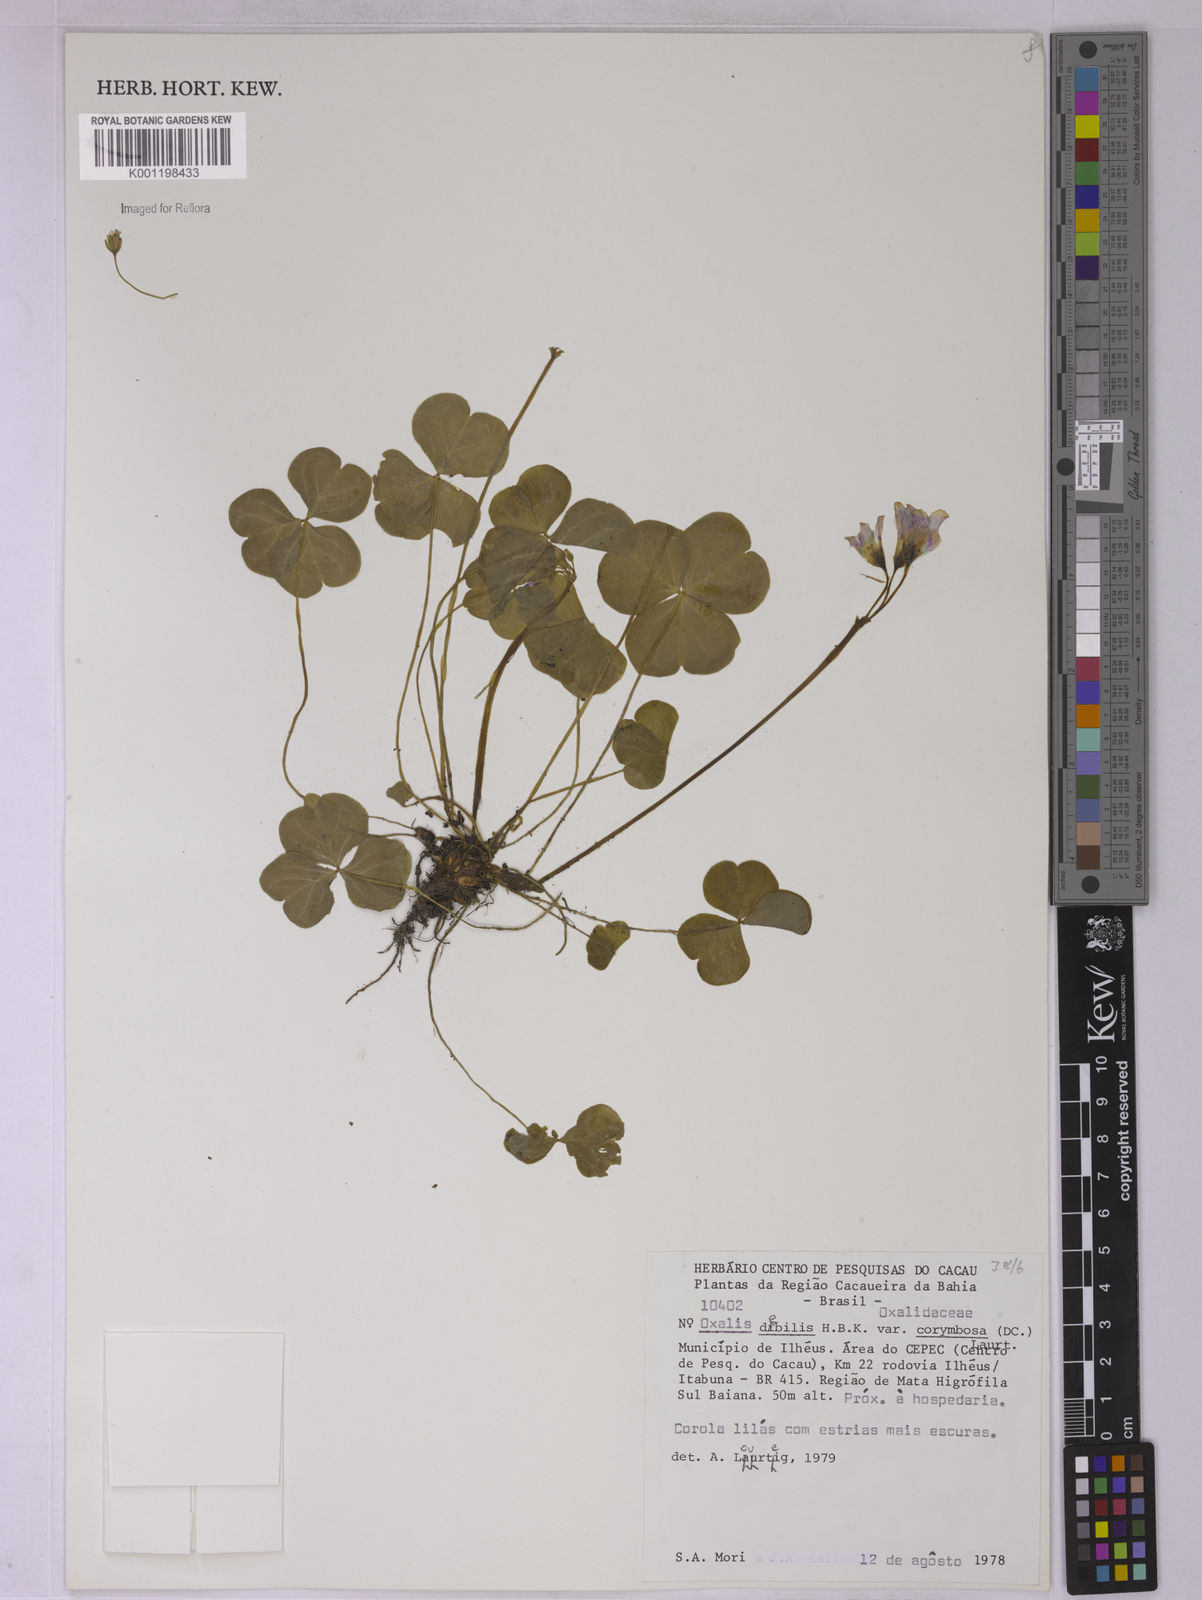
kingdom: Plantae
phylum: Tracheophyta
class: Magnoliopsida
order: Oxalidales
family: Oxalidaceae
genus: Oxalis
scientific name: Oxalis debilis
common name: Large-flowered pink-sorrel
